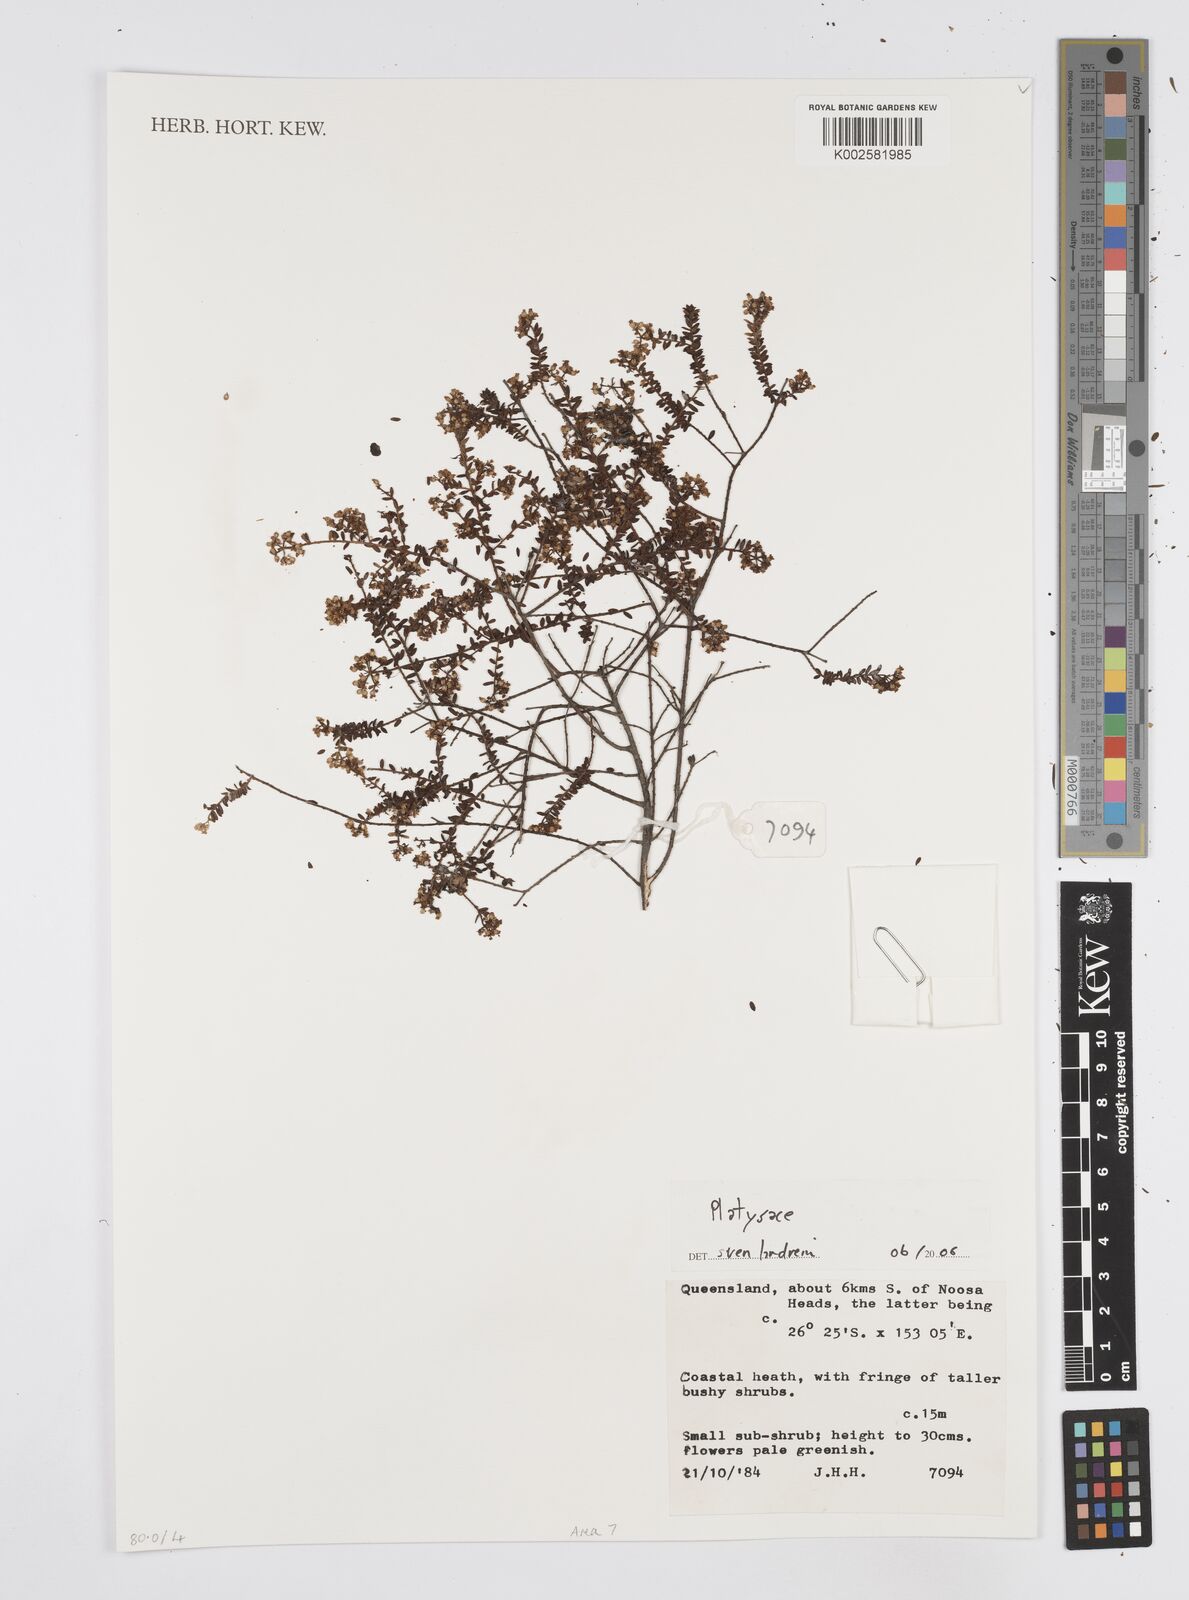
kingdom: Plantae
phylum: Tracheophyta
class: Magnoliopsida
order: Apiales
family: Apiaceae
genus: Platysace
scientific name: Platysace
